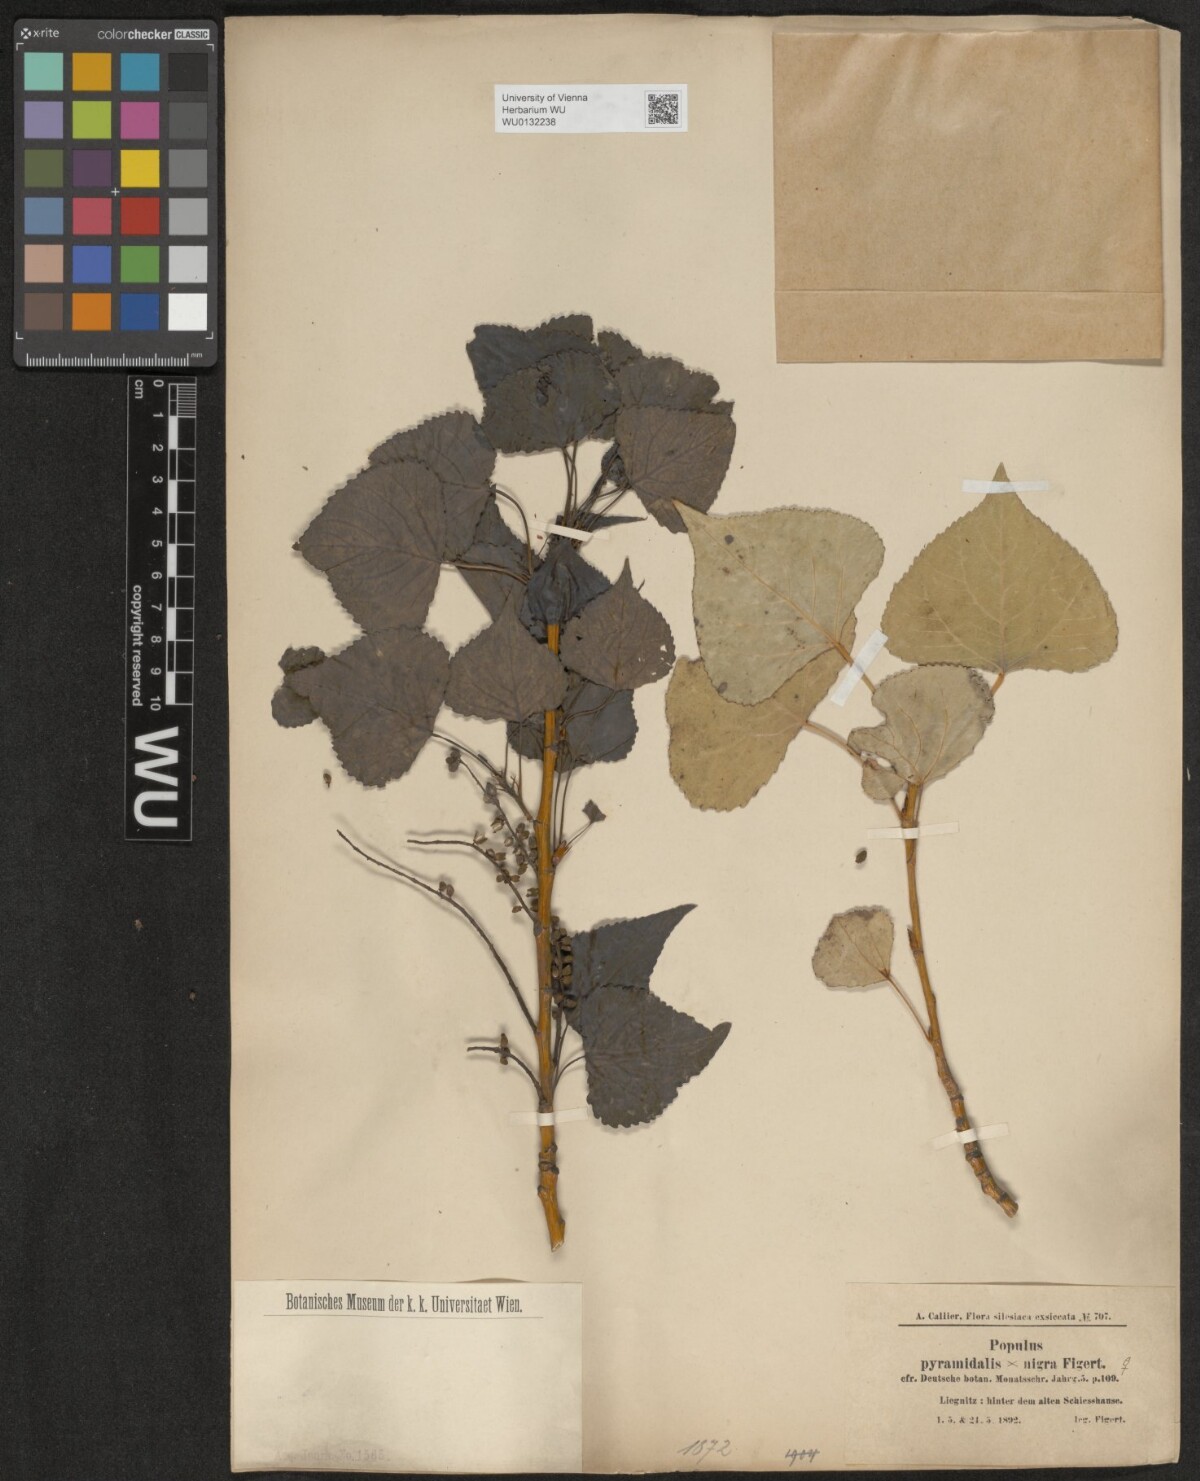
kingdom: Plantae
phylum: Tracheophyta
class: Magnoliopsida
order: Malpighiales
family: Salicaceae
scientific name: Salicaceae
